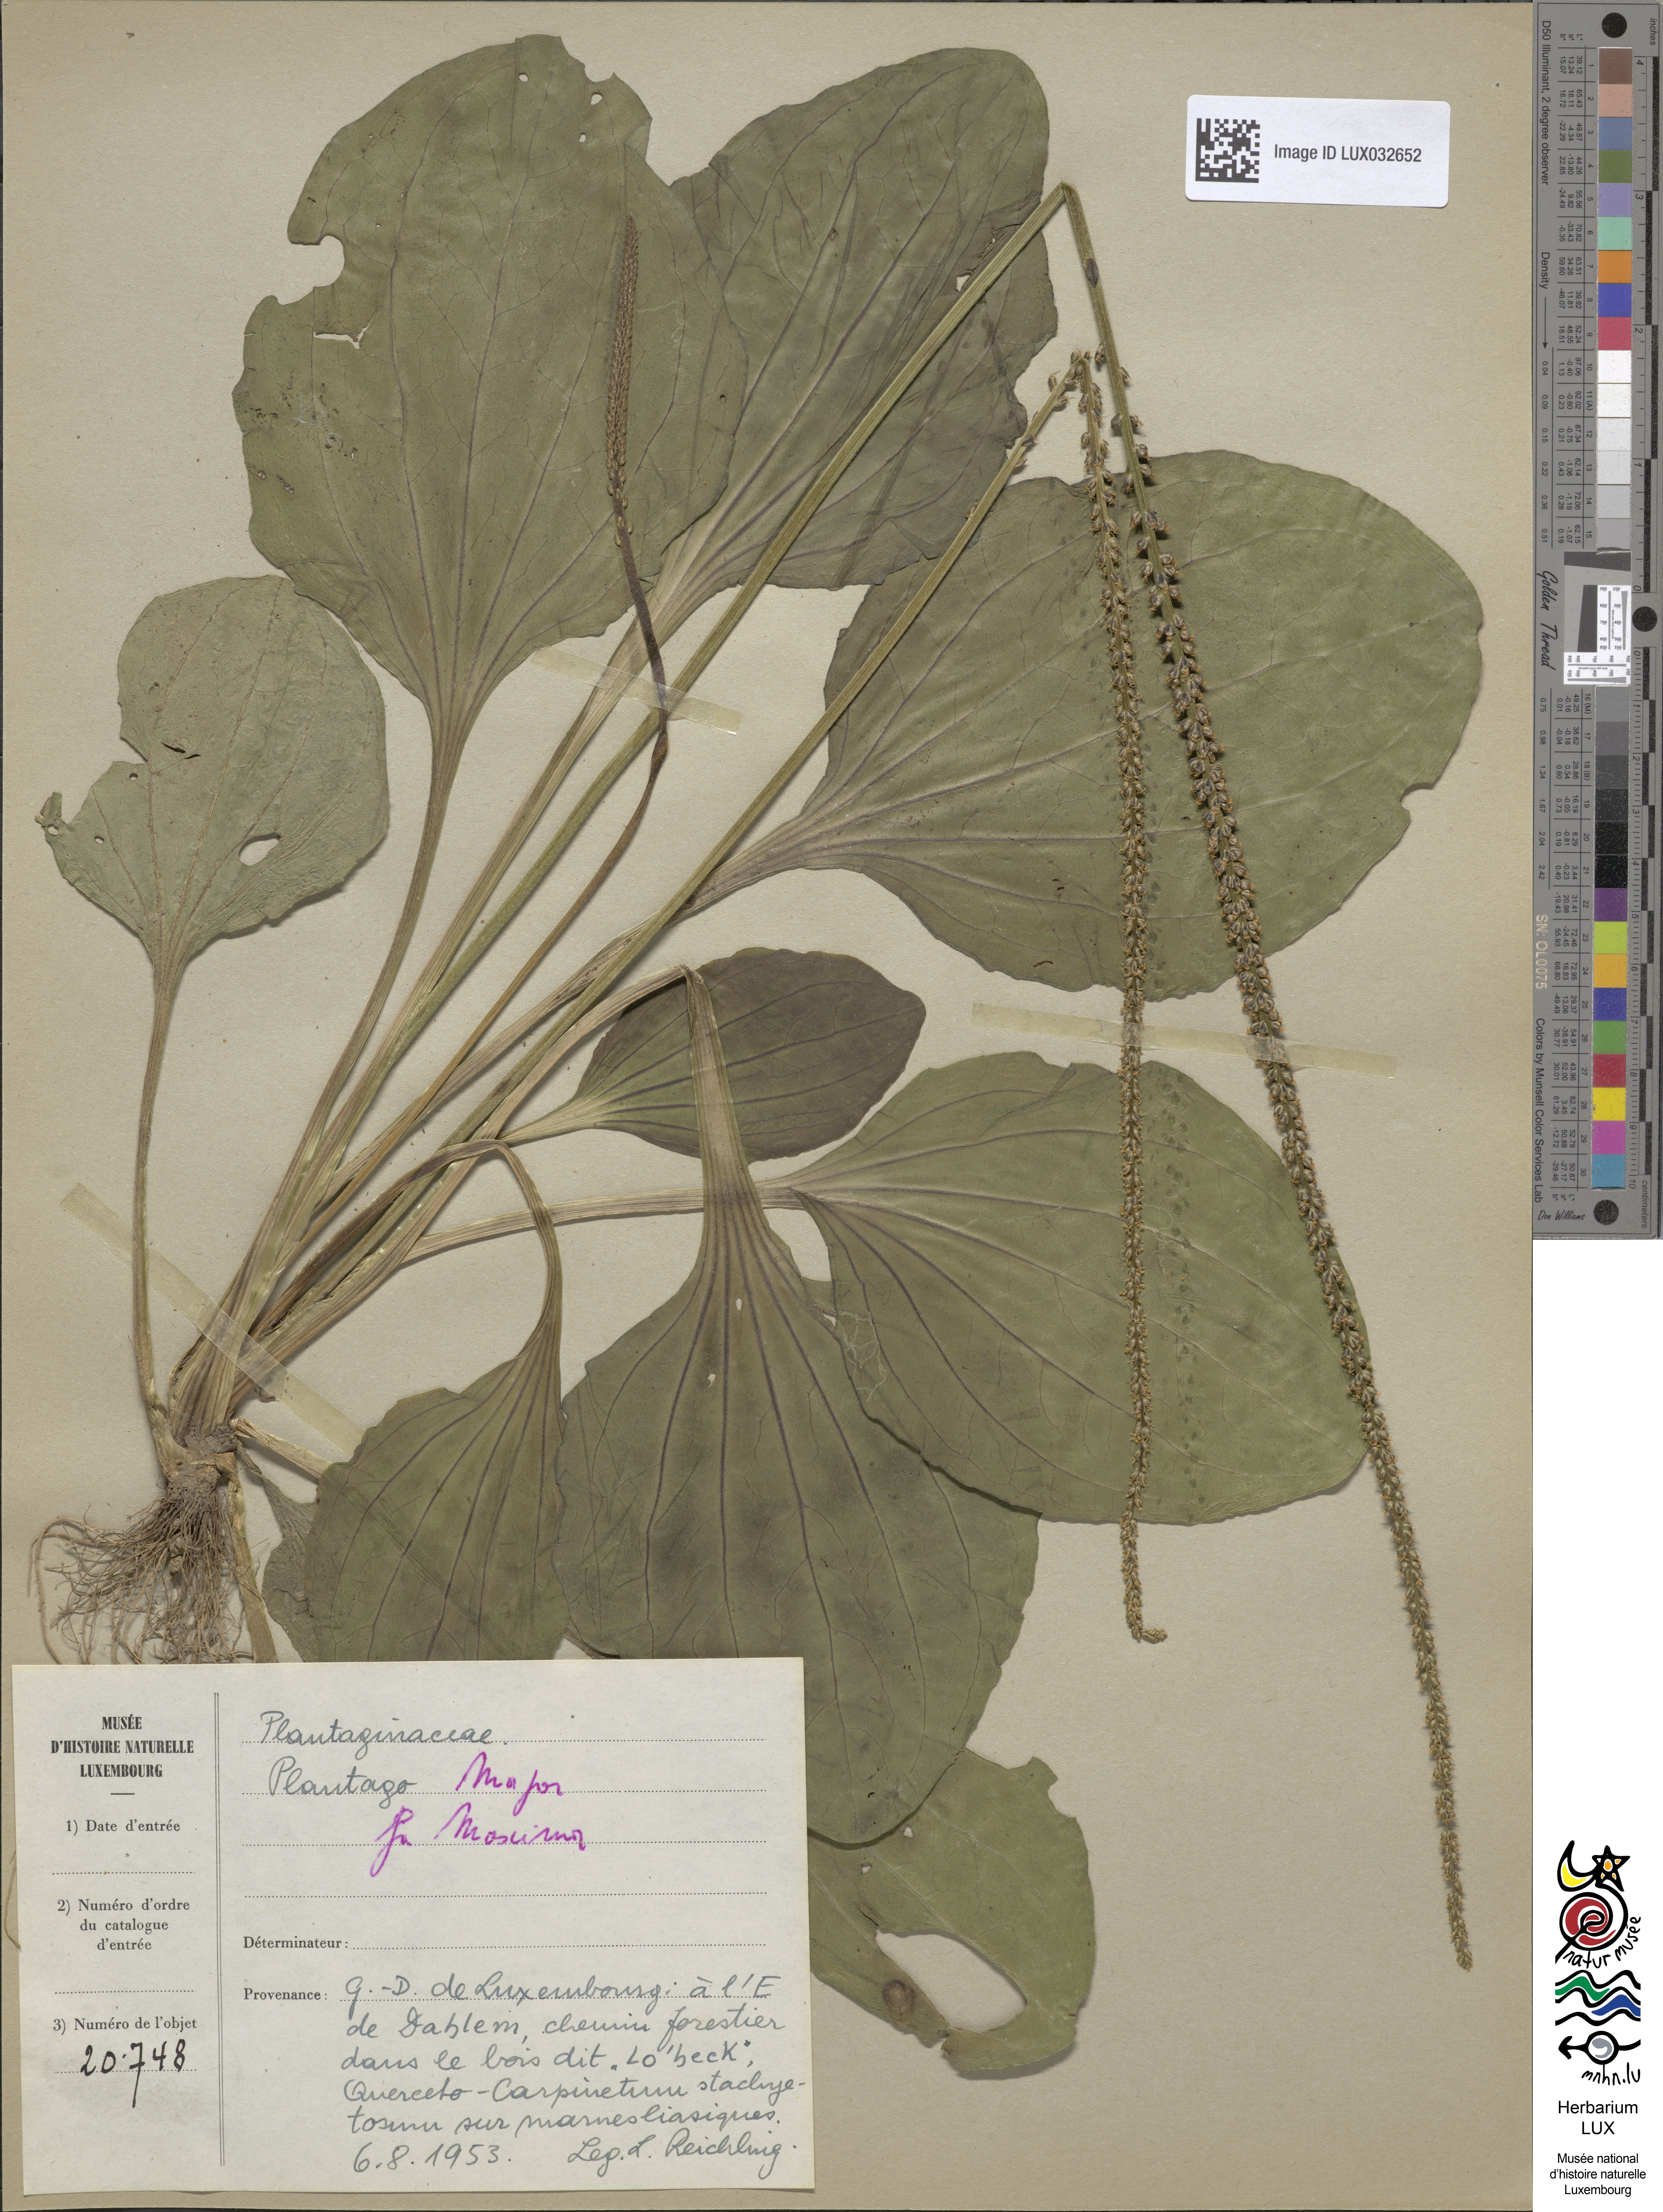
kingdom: Plantae
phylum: Tracheophyta
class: Magnoliopsida
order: Lamiales
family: Plantaginaceae
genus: Plantago
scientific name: Plantago major
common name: Common plantain
